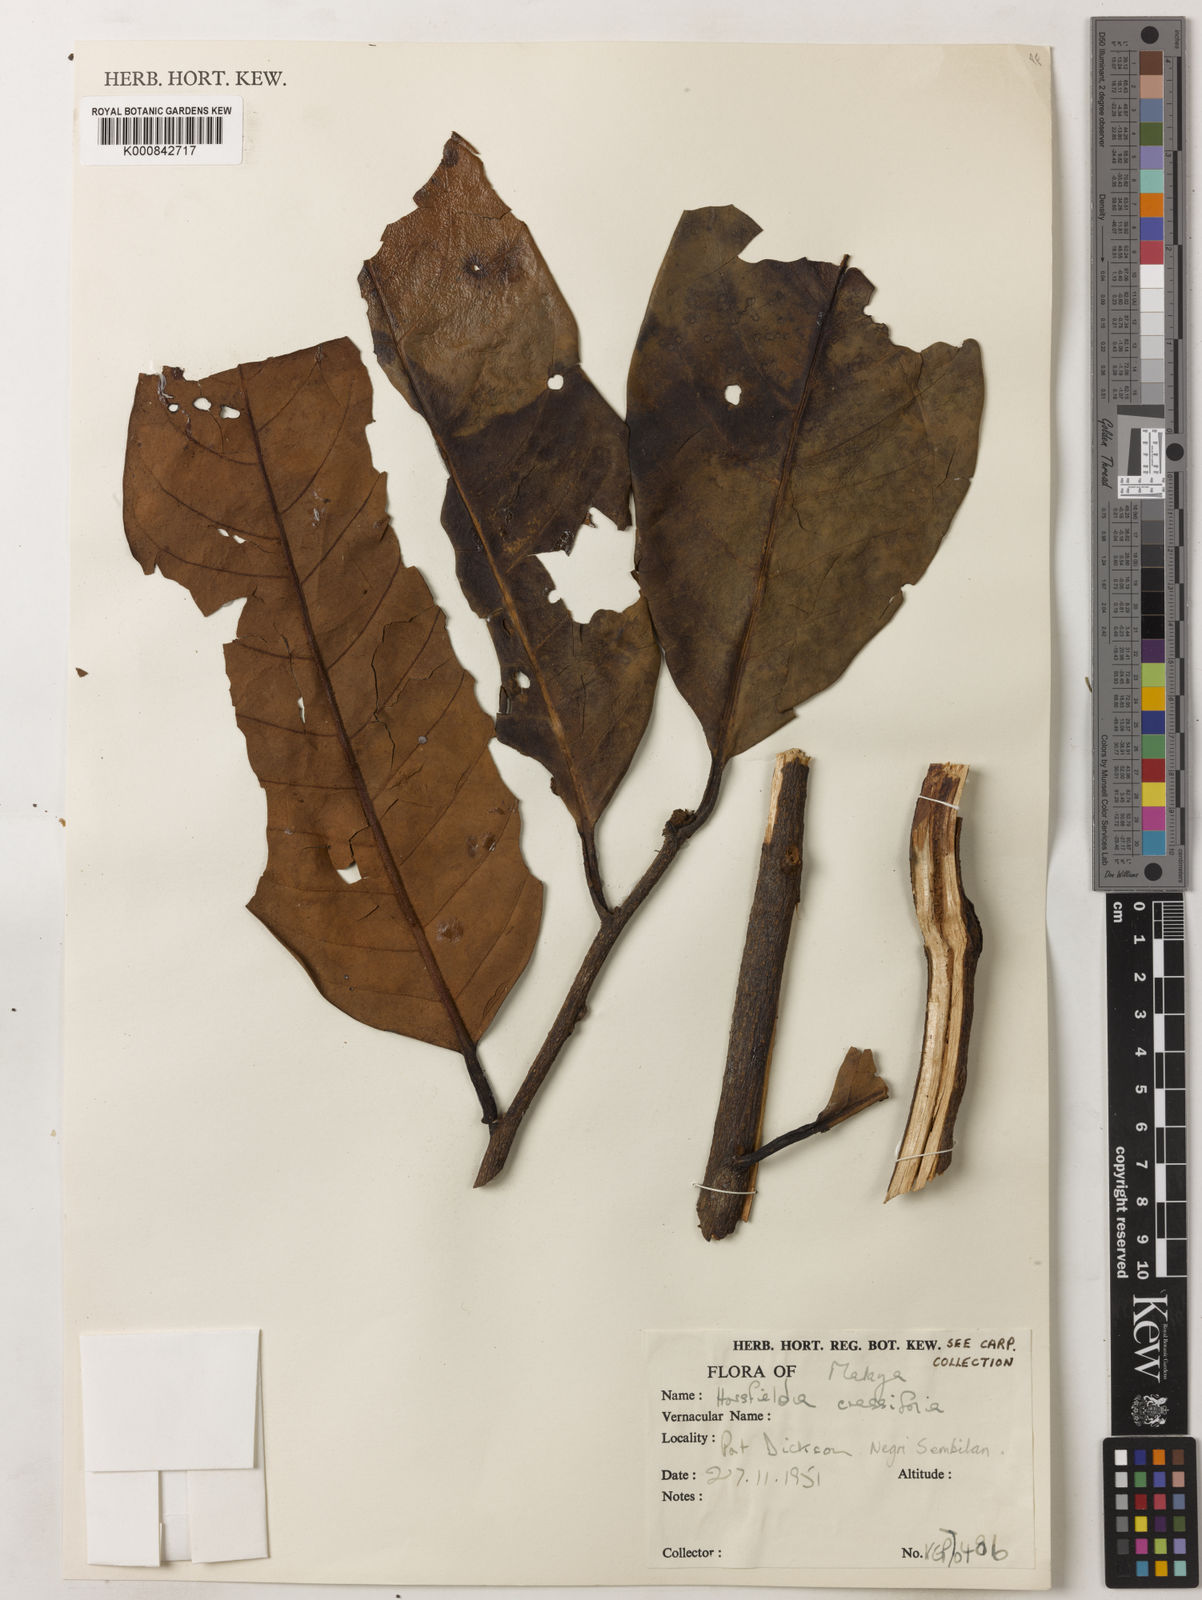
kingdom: Plantae
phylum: Tracheophyta
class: Magnoliopsida
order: Magnoliales
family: Myristicaceae
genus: Horsfieldia
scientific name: Horsfieldia crassifolia
